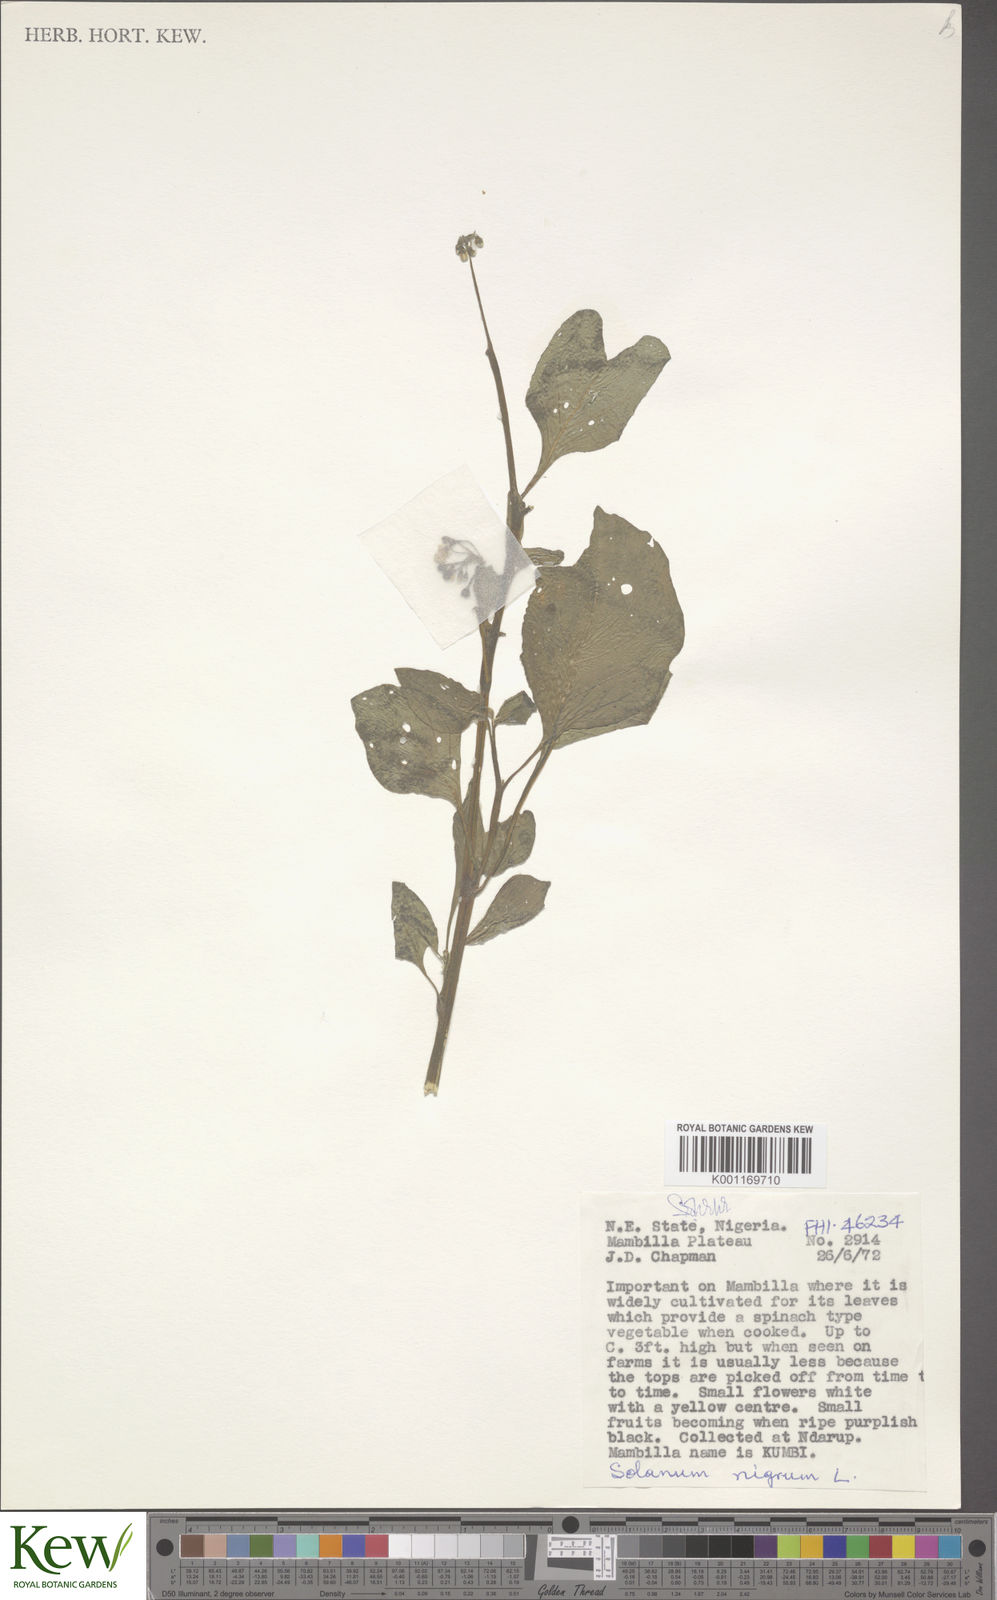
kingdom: Plantae
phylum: Tracheophyta
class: Magnoliopsida
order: Solanales
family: Solanaceae
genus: Solanum
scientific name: Solanum scabrum
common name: Garden-huckleberry
